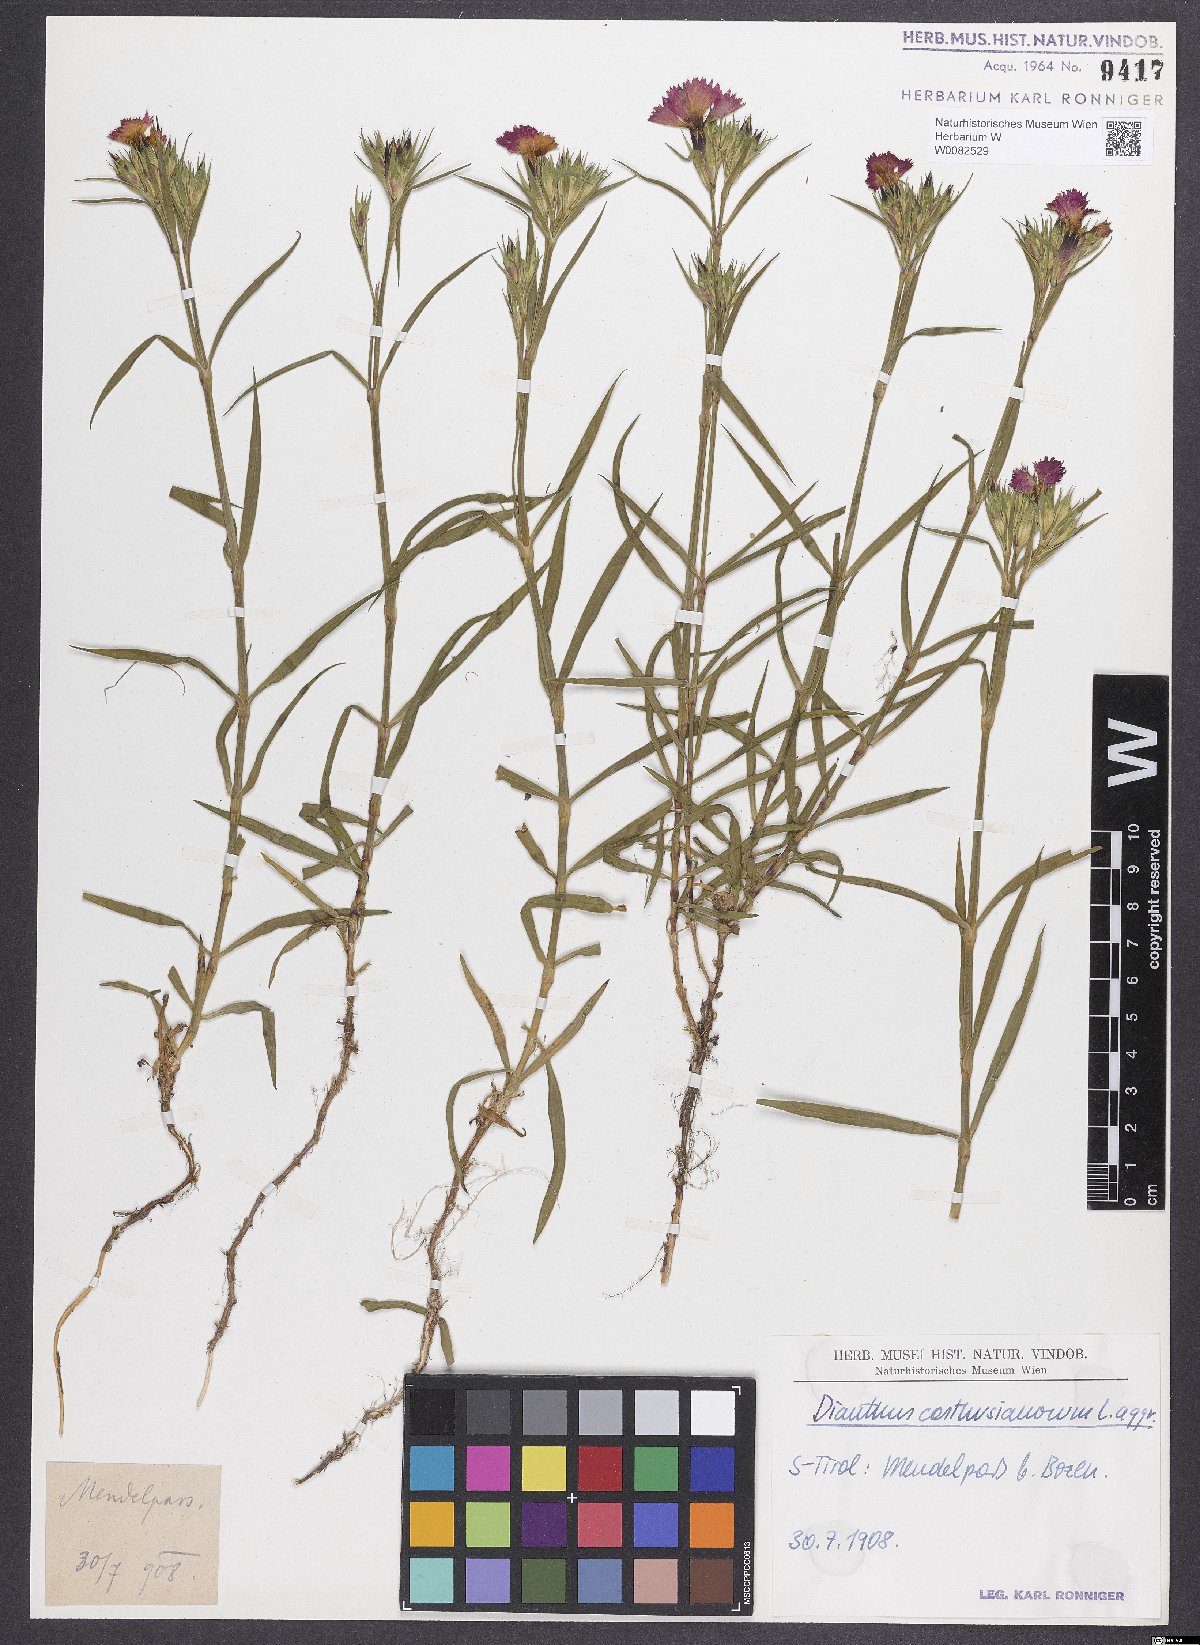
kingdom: Plantae
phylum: Tracheophyta
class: Magnoliopsida
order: Caryophyllales
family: Caryophyllaceae
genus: Dianthus
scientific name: Dianthus carthusianorum
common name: Carthusian pink
